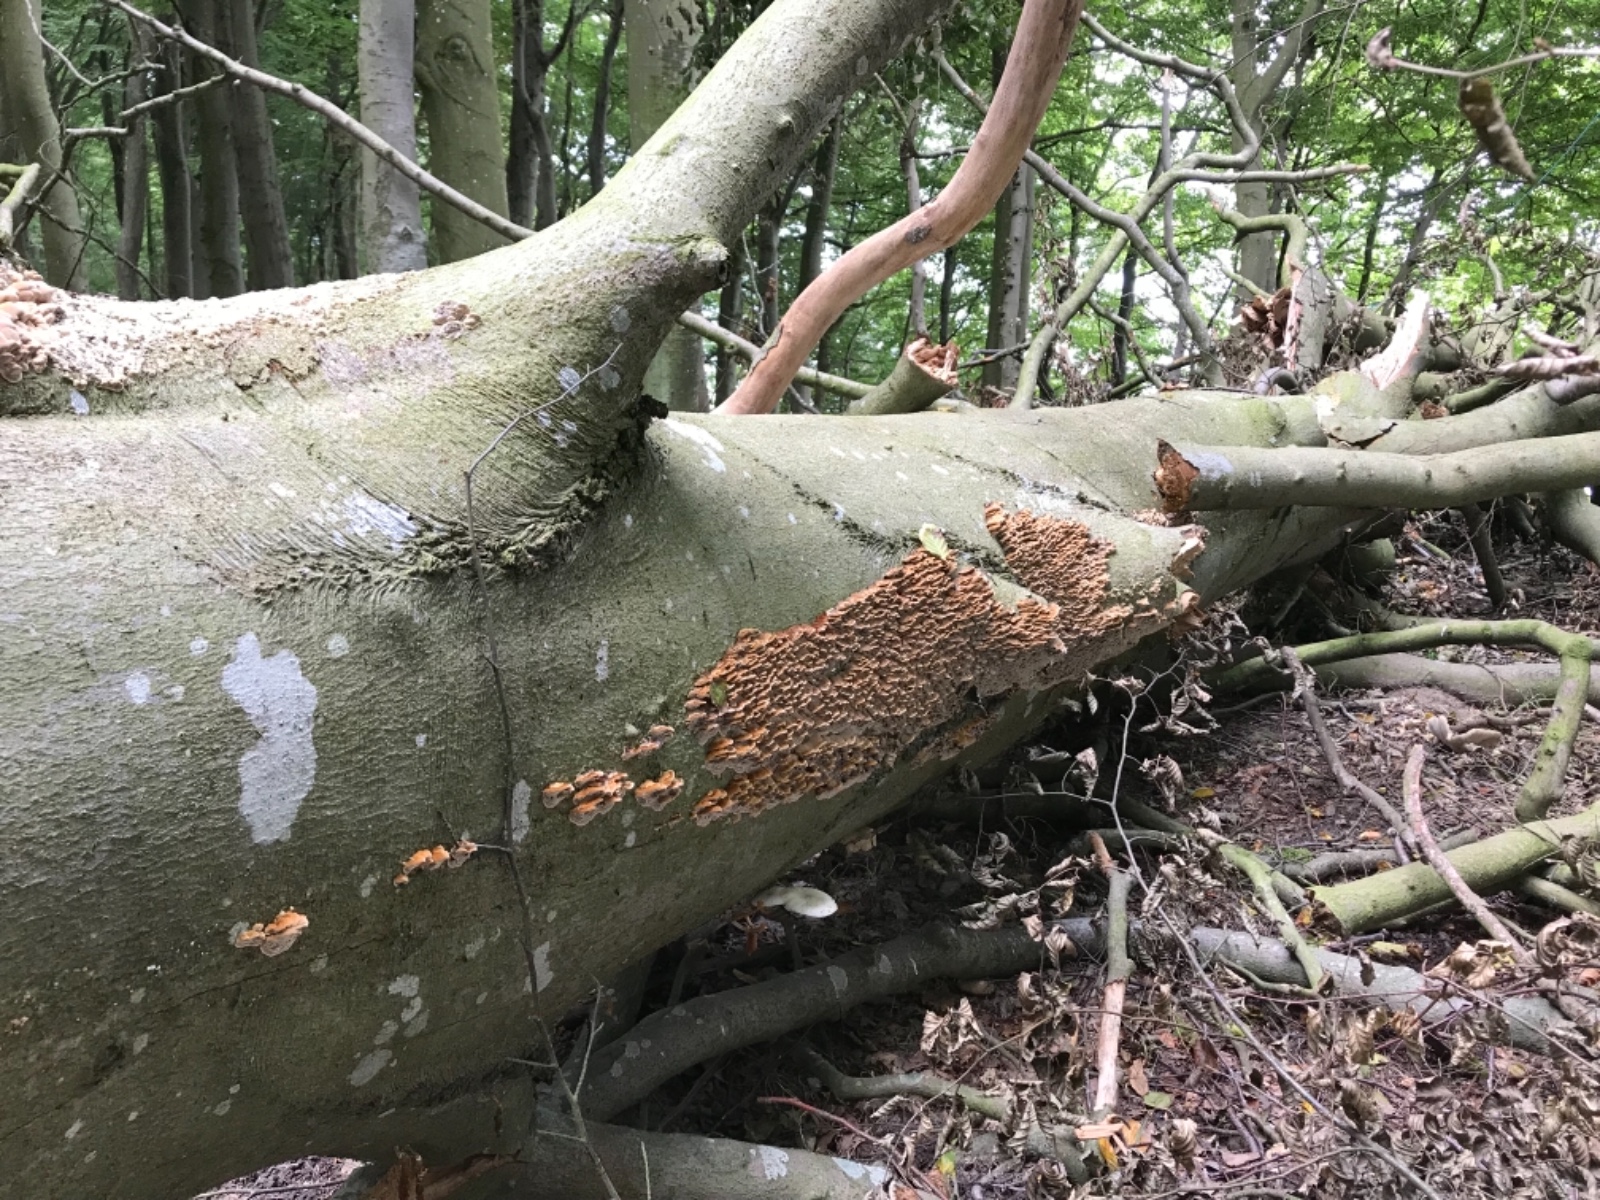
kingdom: Fungi
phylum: Basidiomycota
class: Agaricomycetes
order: Hymenochaetales
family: Hymenochaetaceae
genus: Mensularia
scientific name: Mensularia nodulosa
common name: bøge-spejlporesvamp
